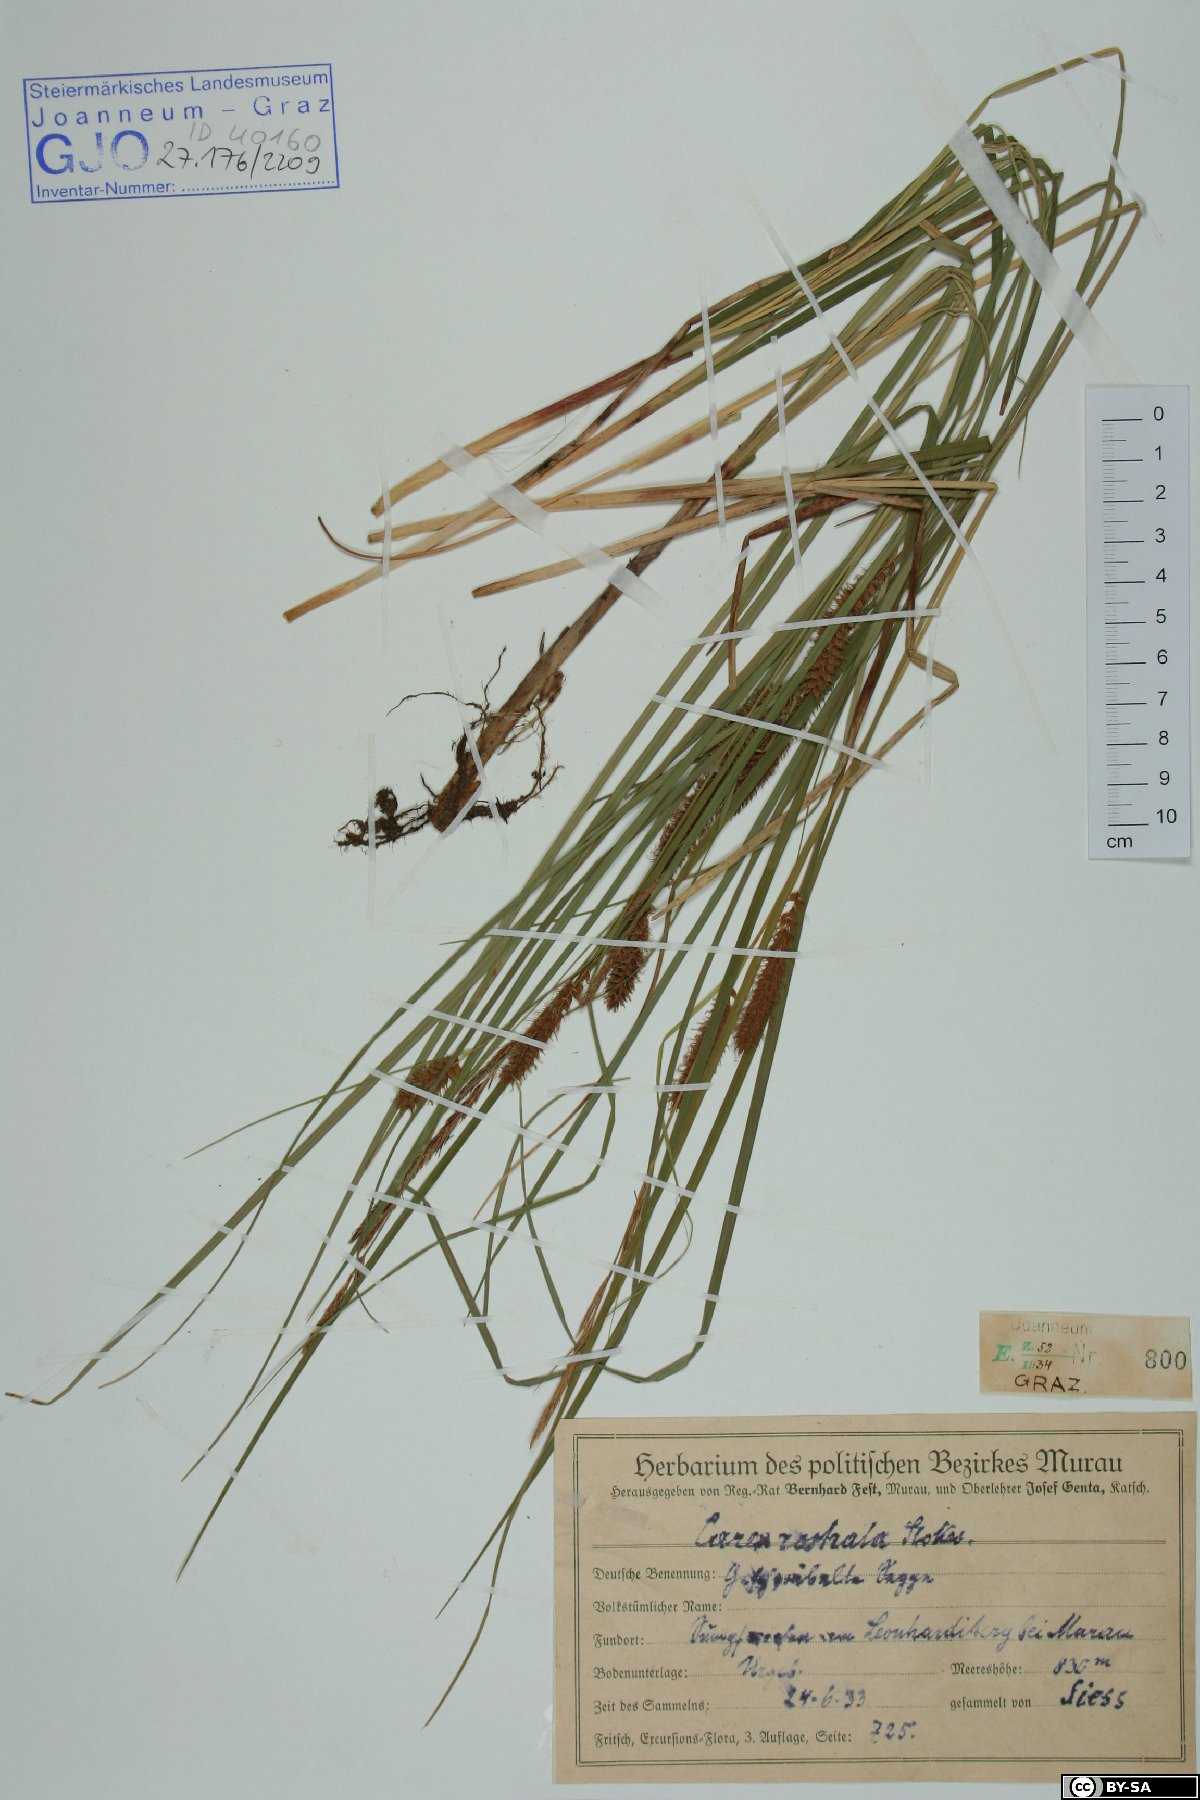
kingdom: Plantae
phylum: Tracheophyta
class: Liliopsida
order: Poales
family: Cyperaceae
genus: Carex
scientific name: Carex rostrata
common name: Bottle sedge
